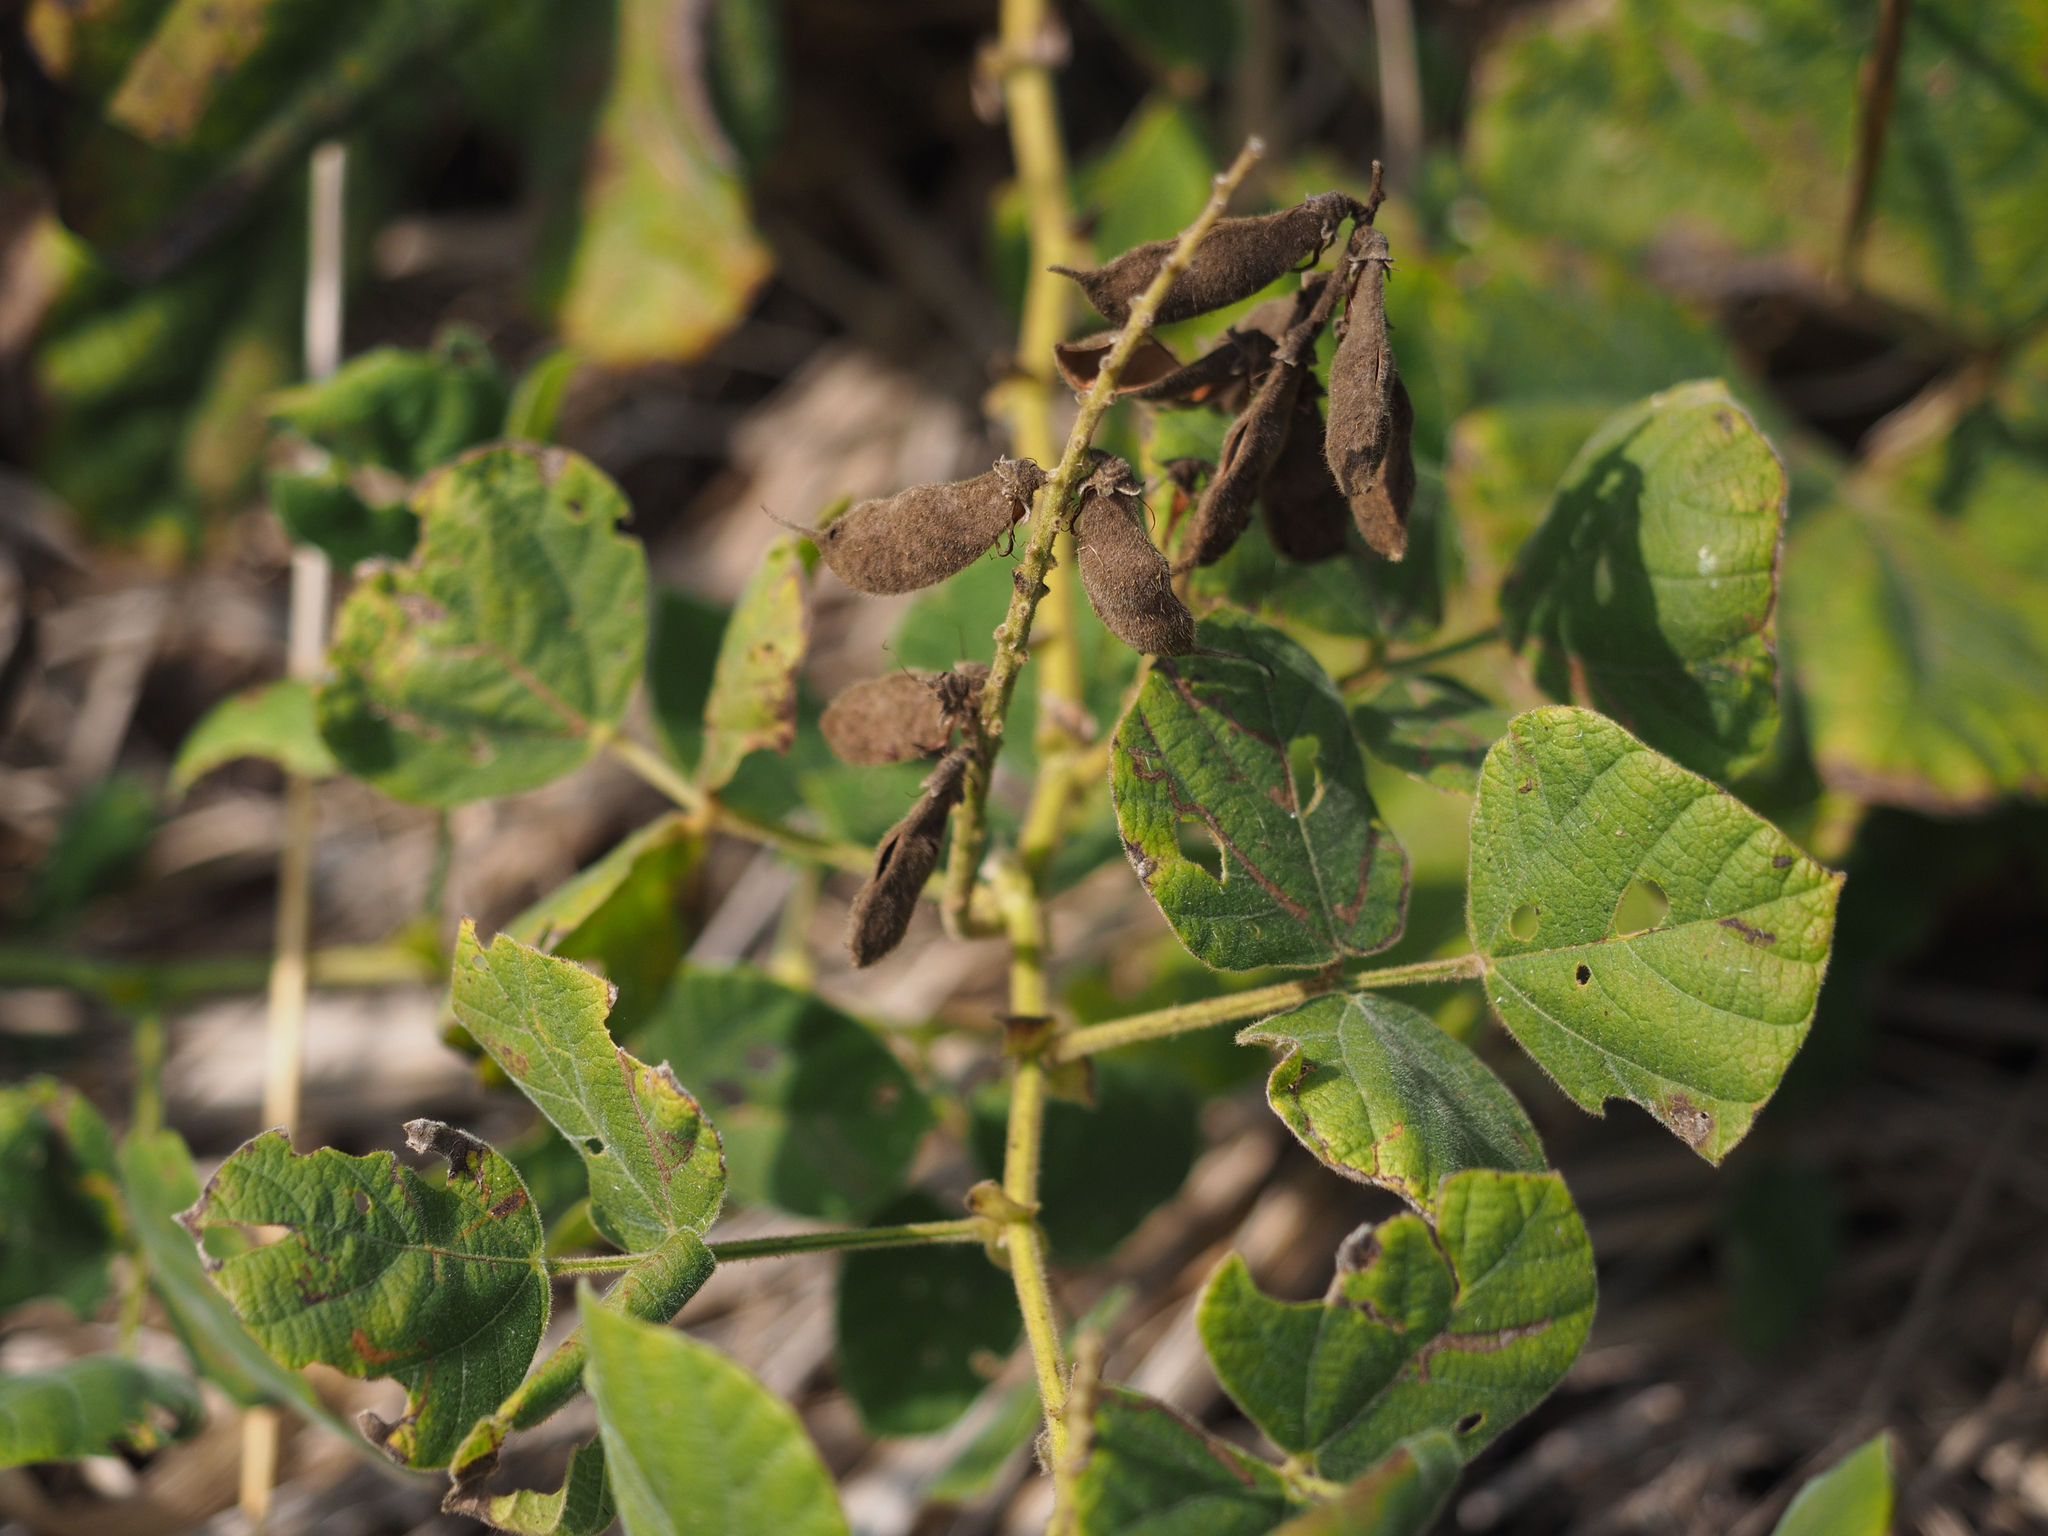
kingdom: Plantae
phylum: Tracheophyta
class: Magnoliopsida
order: Fabales
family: Fabaceae
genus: Rhynchosia
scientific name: Rhynchosia rothii
